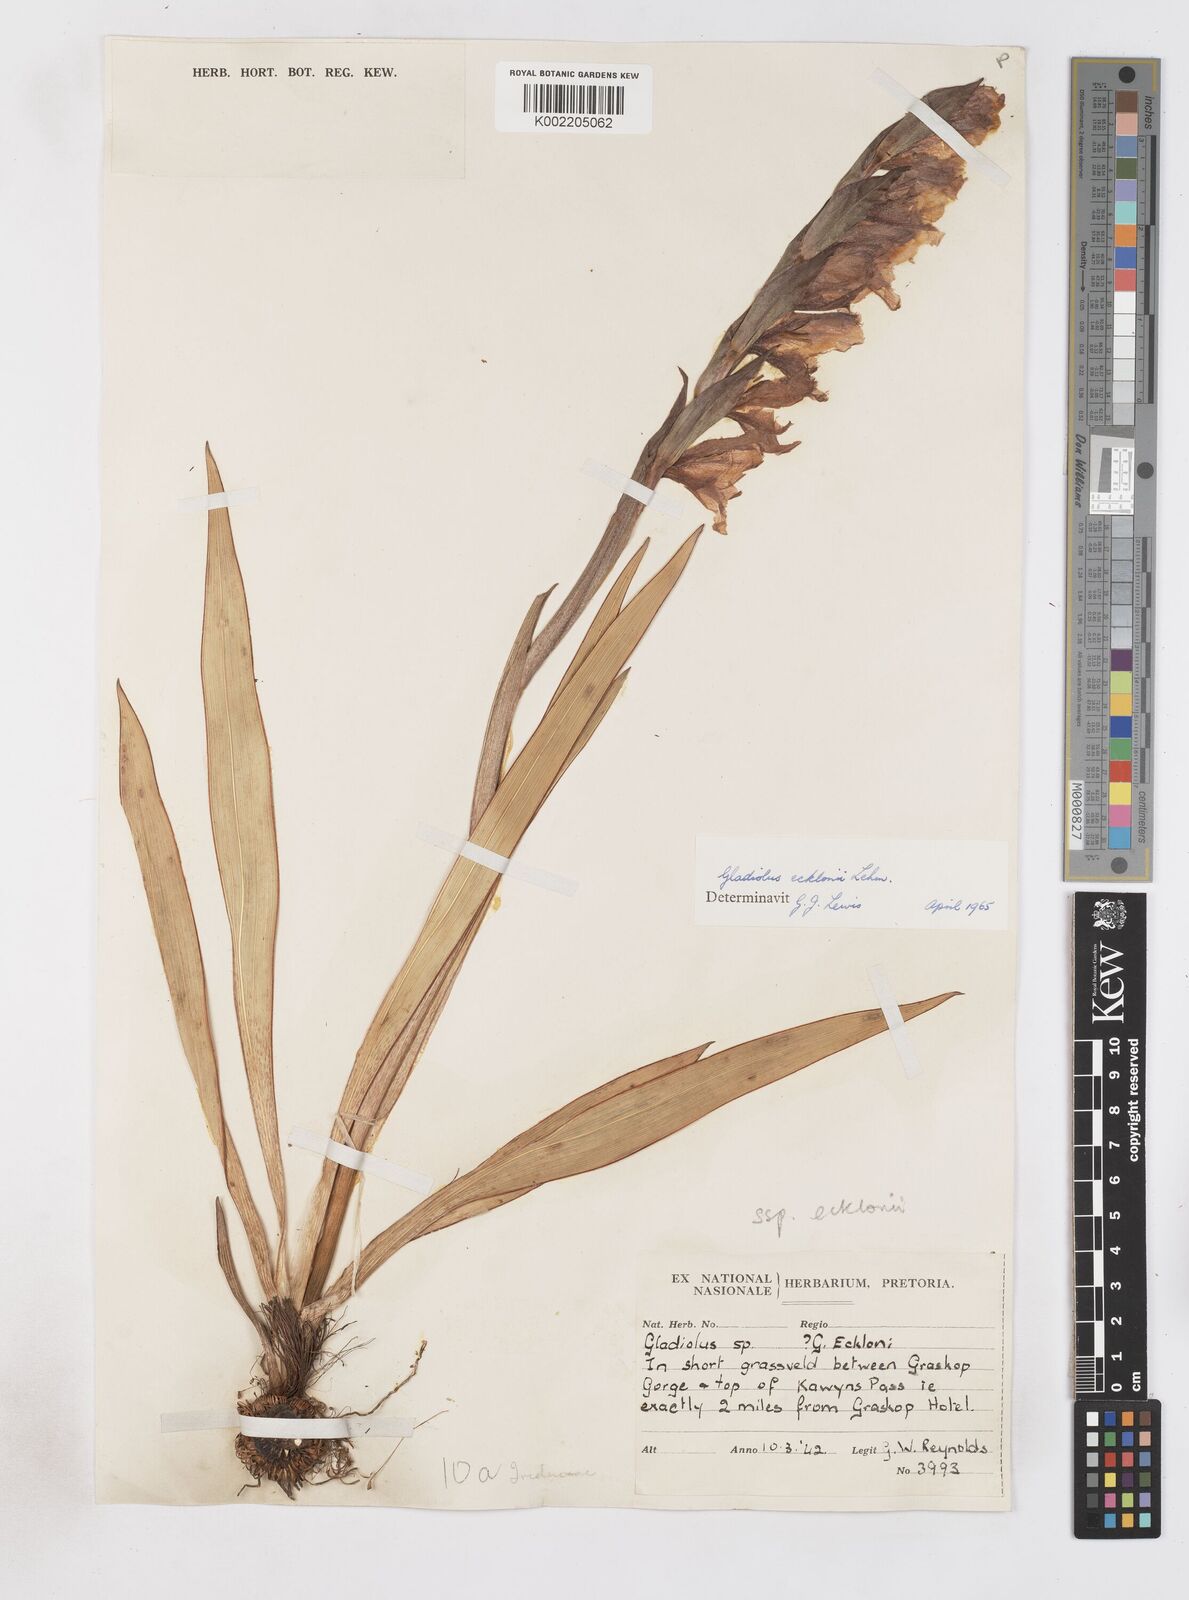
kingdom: Plantae
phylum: Tracheophyta
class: Liliopsida
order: Asparagales
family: Iridaceae
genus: Gladiolus
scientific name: Gladiolus ecklonii
